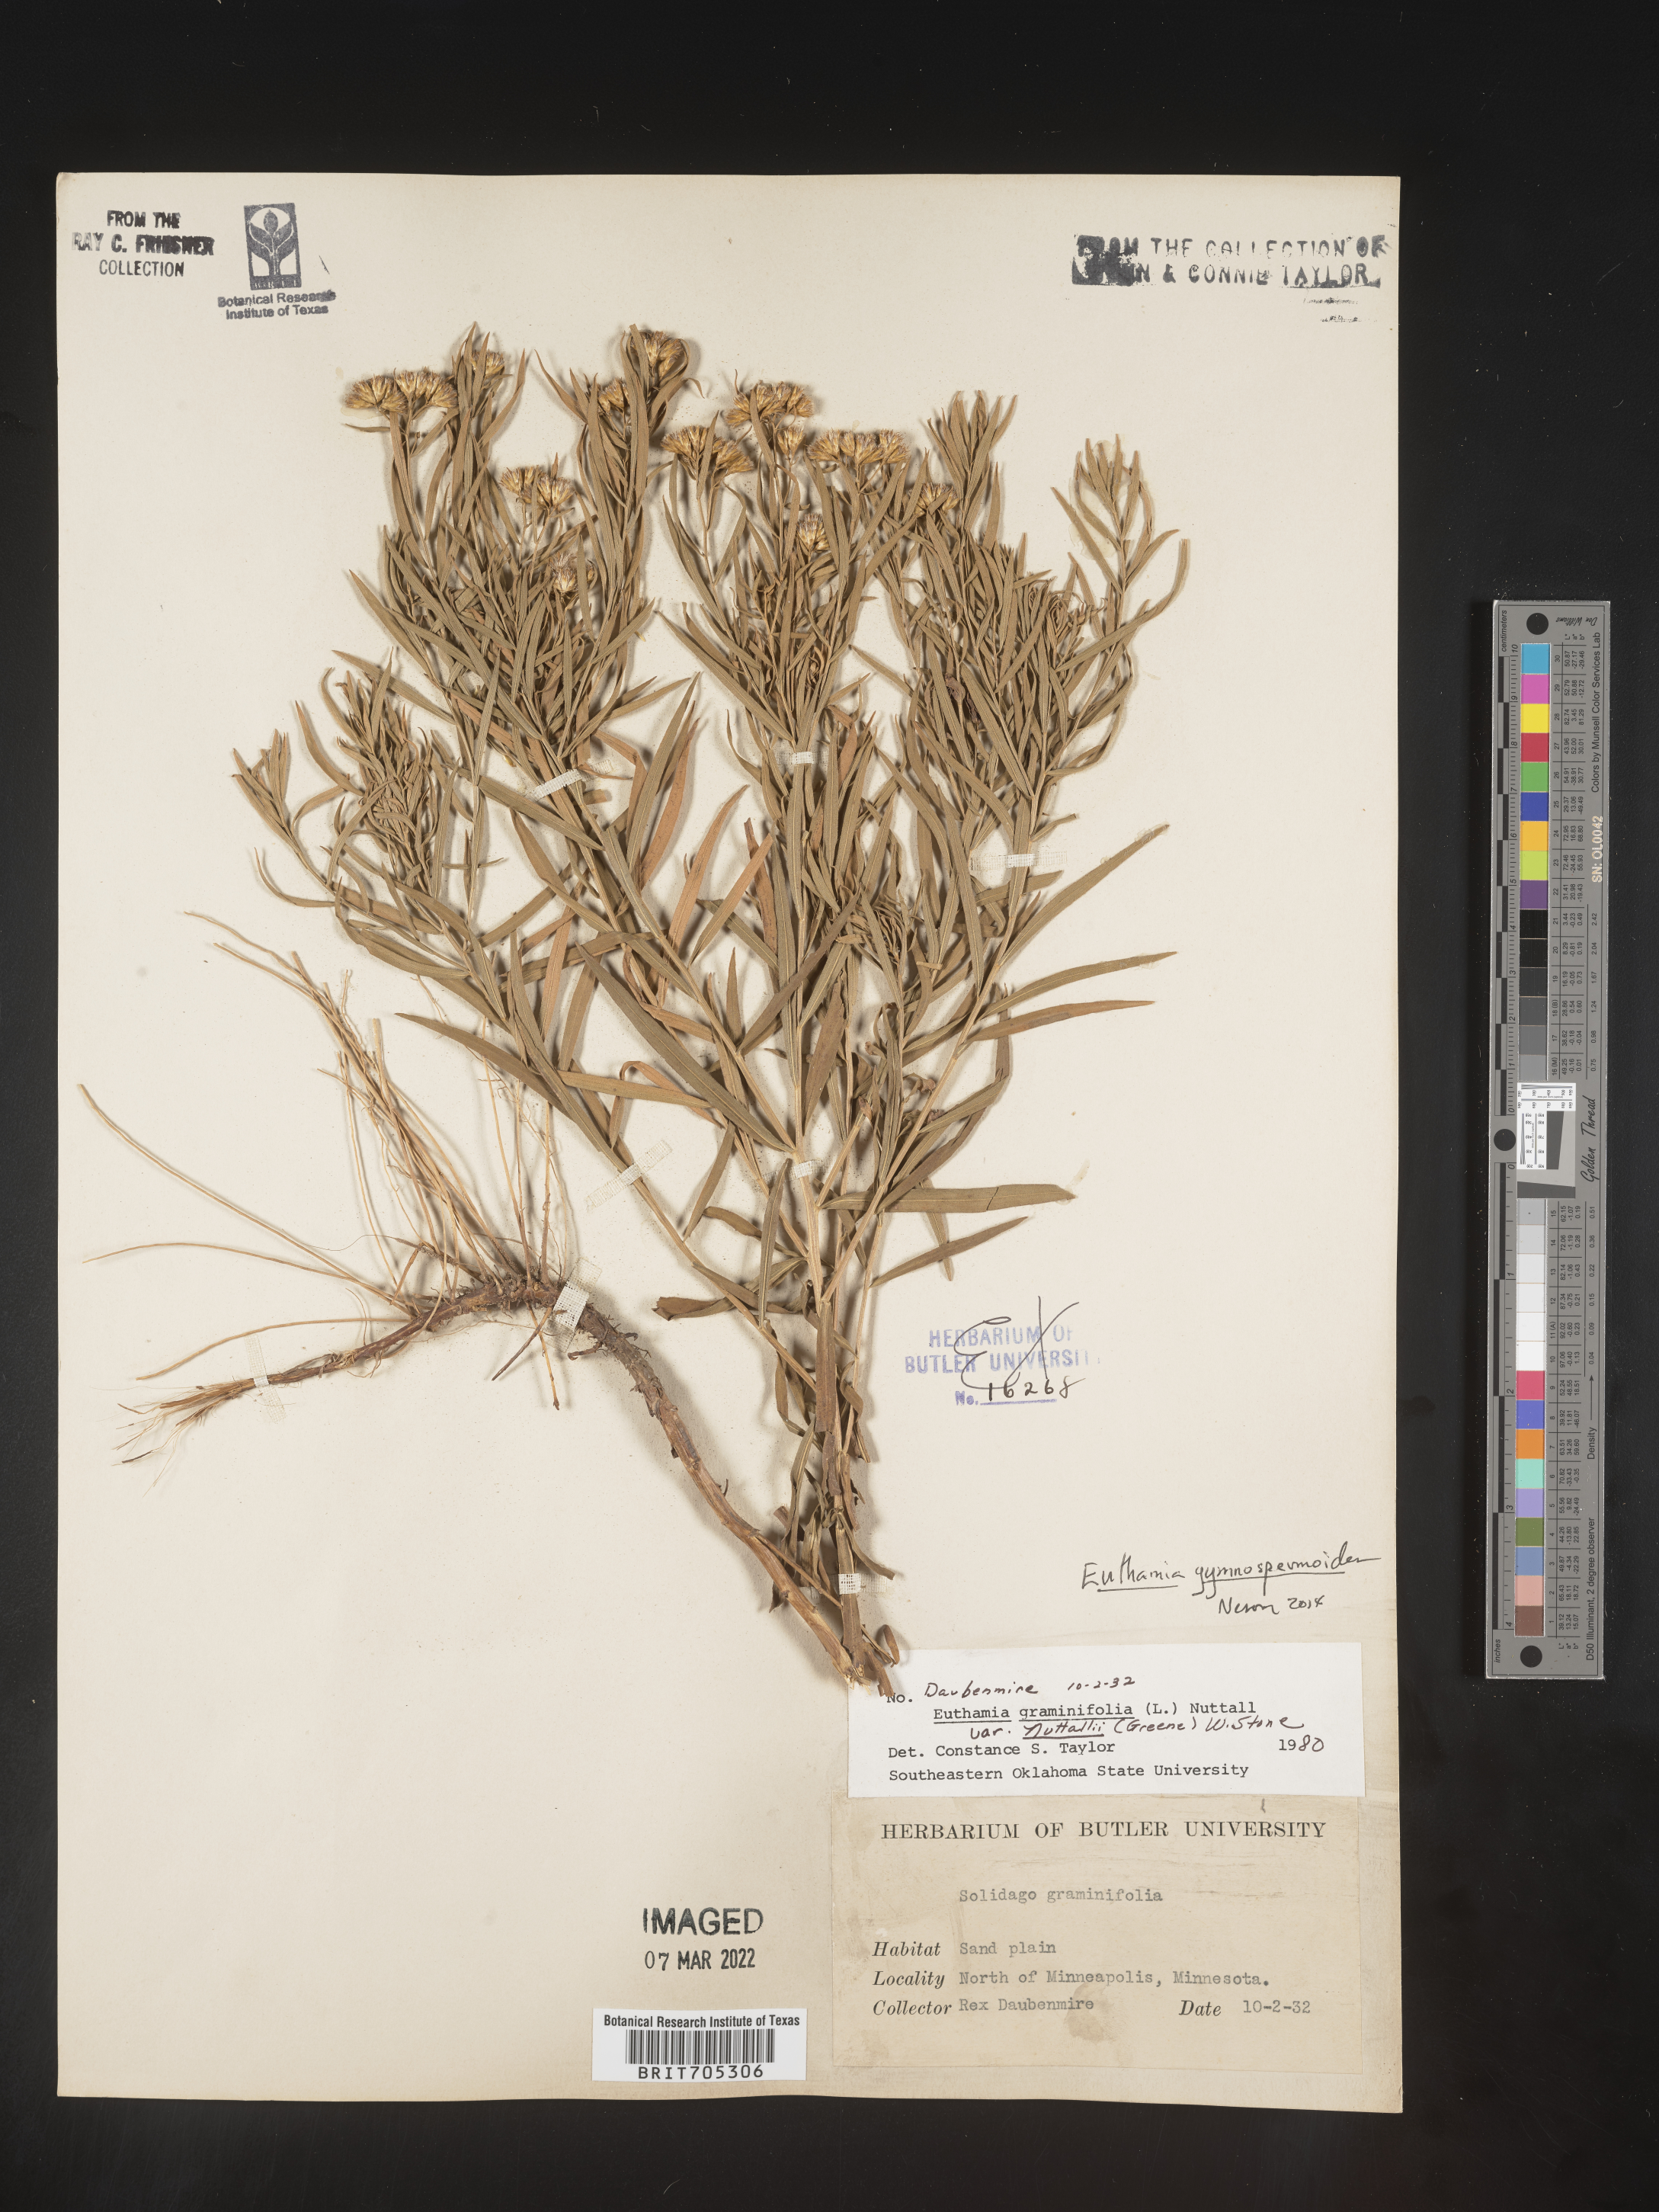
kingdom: Plantae
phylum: Tracheophyta
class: Magnoliopsida
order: Asterales
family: Asteraceae
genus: Euthamia
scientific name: Euthamia gymnospermoides
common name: Great plains goldentop
